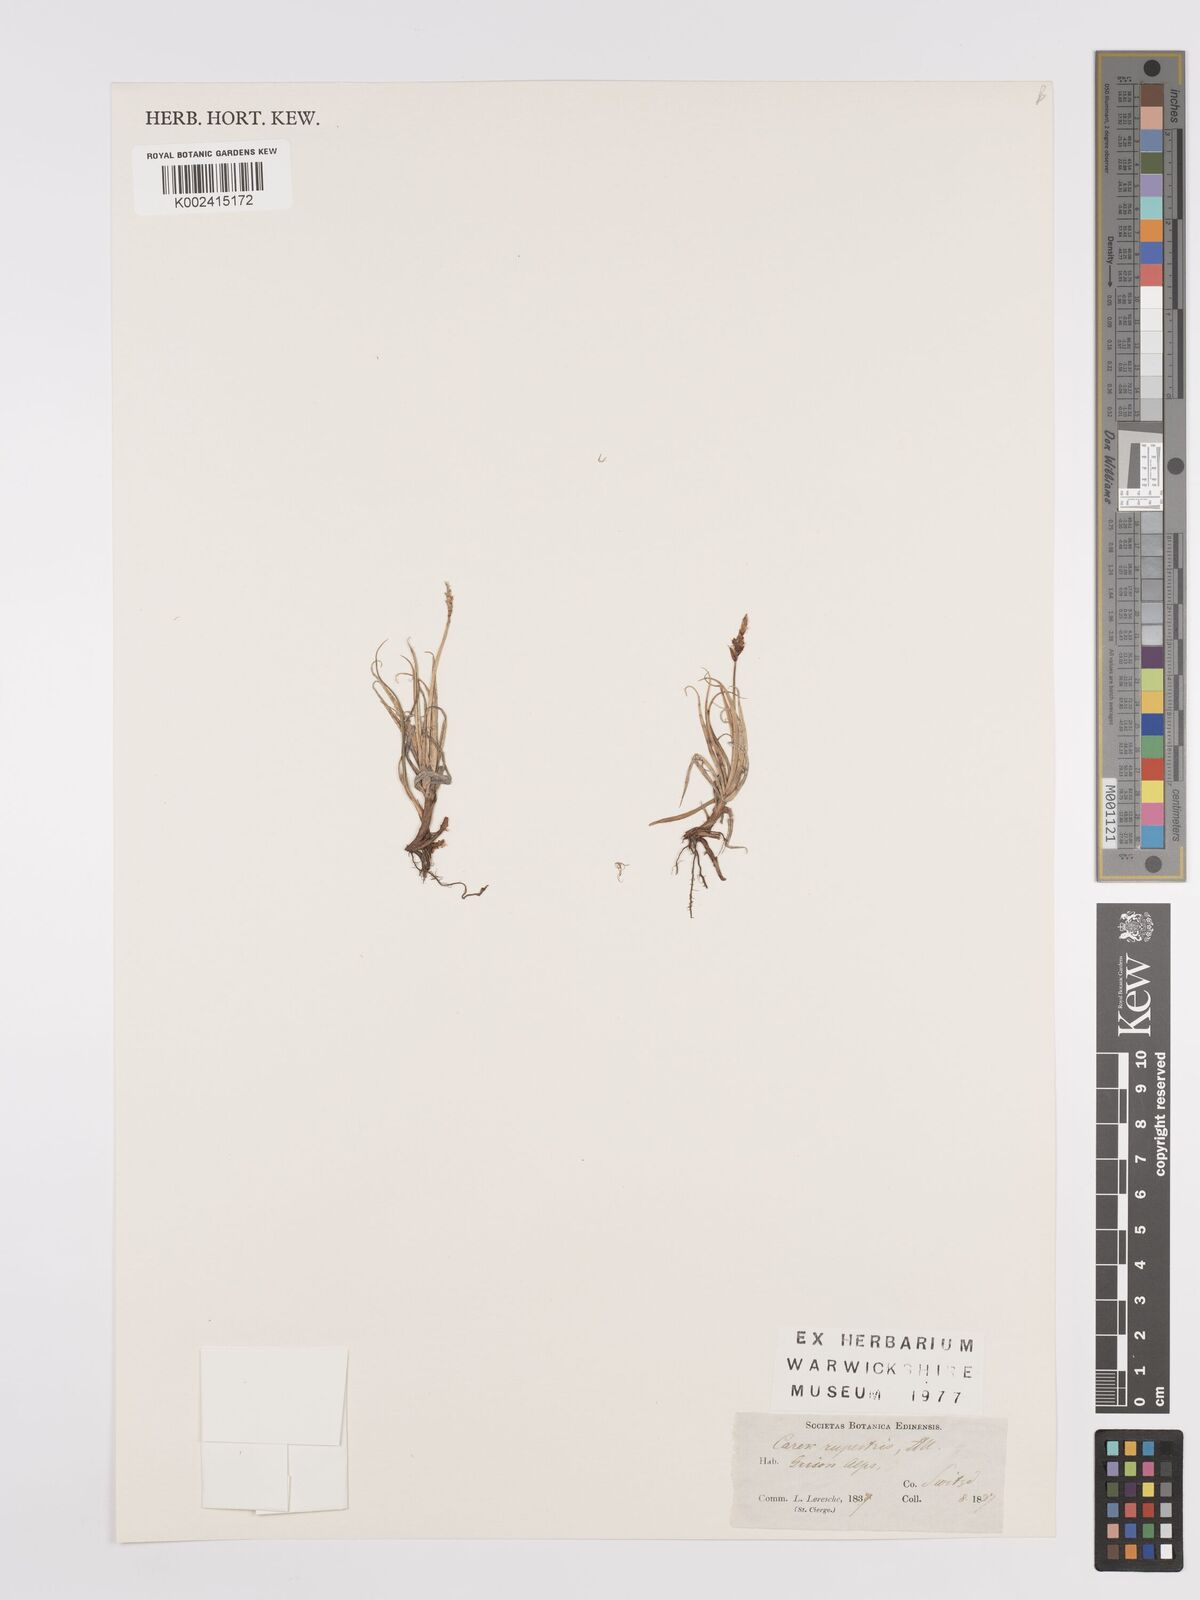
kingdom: Plantae
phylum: Tracheophyta
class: Liliopsida
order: Poales
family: Cyperaceae
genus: Carex
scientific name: Carex rupestris
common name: Rock sedge
